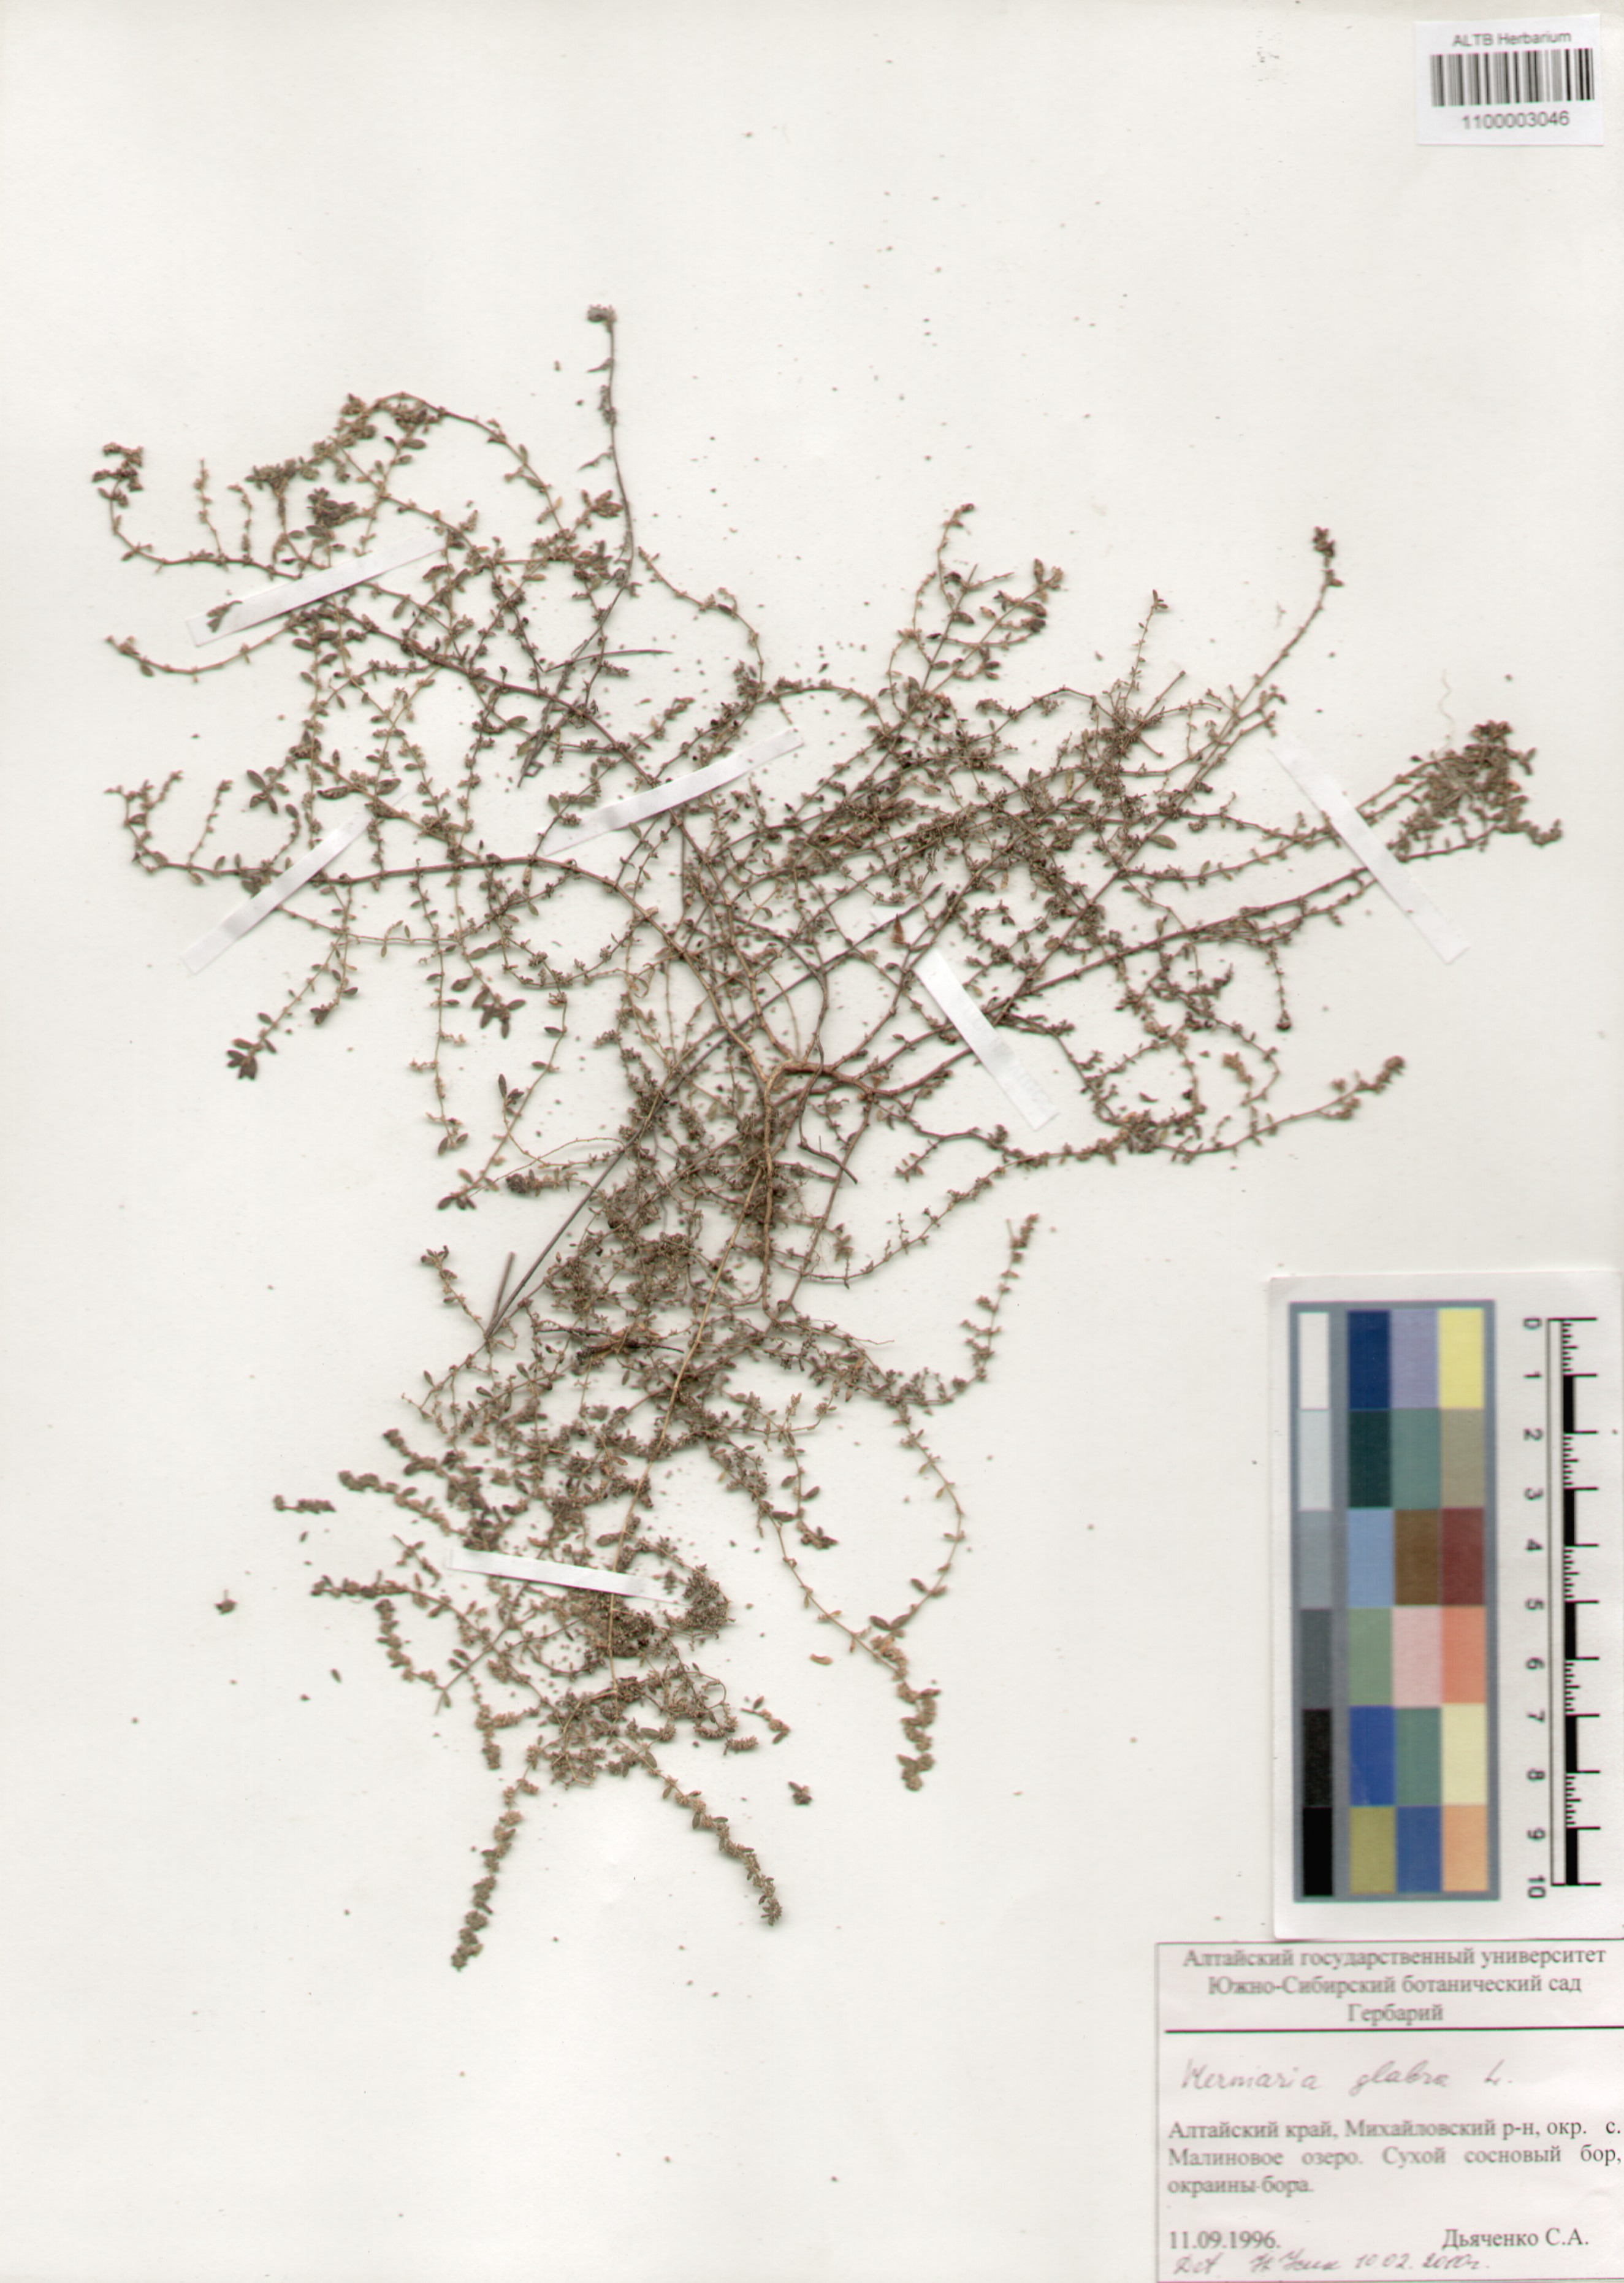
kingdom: Plantae
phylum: Tracheophyta
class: Magnoliopsida
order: Caryophyllales
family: Caryophyllaceae
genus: Herniaria
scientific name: Herniaria glabra
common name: Smooth rupturewort
